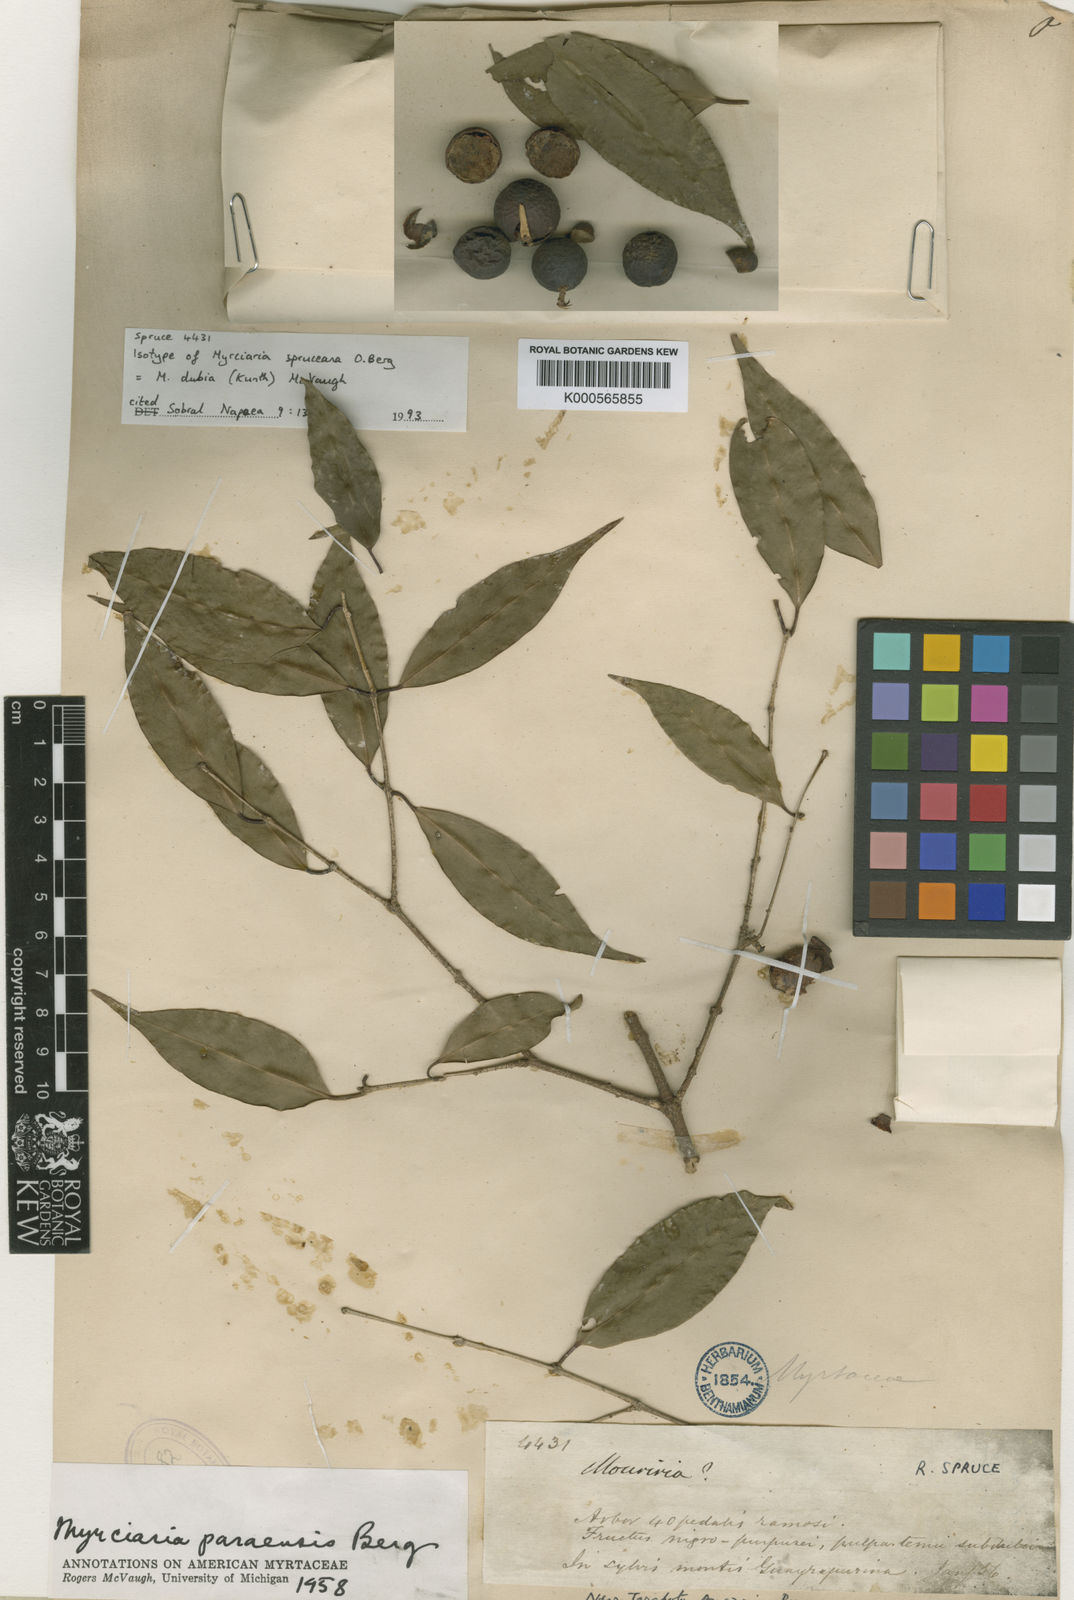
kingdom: Plantae
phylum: Tracheophyta
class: Magnoliopsida
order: Myrtales
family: Myrtaceae
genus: Myrciaria
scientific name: Myrciaria floribunda
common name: Guavaberry
